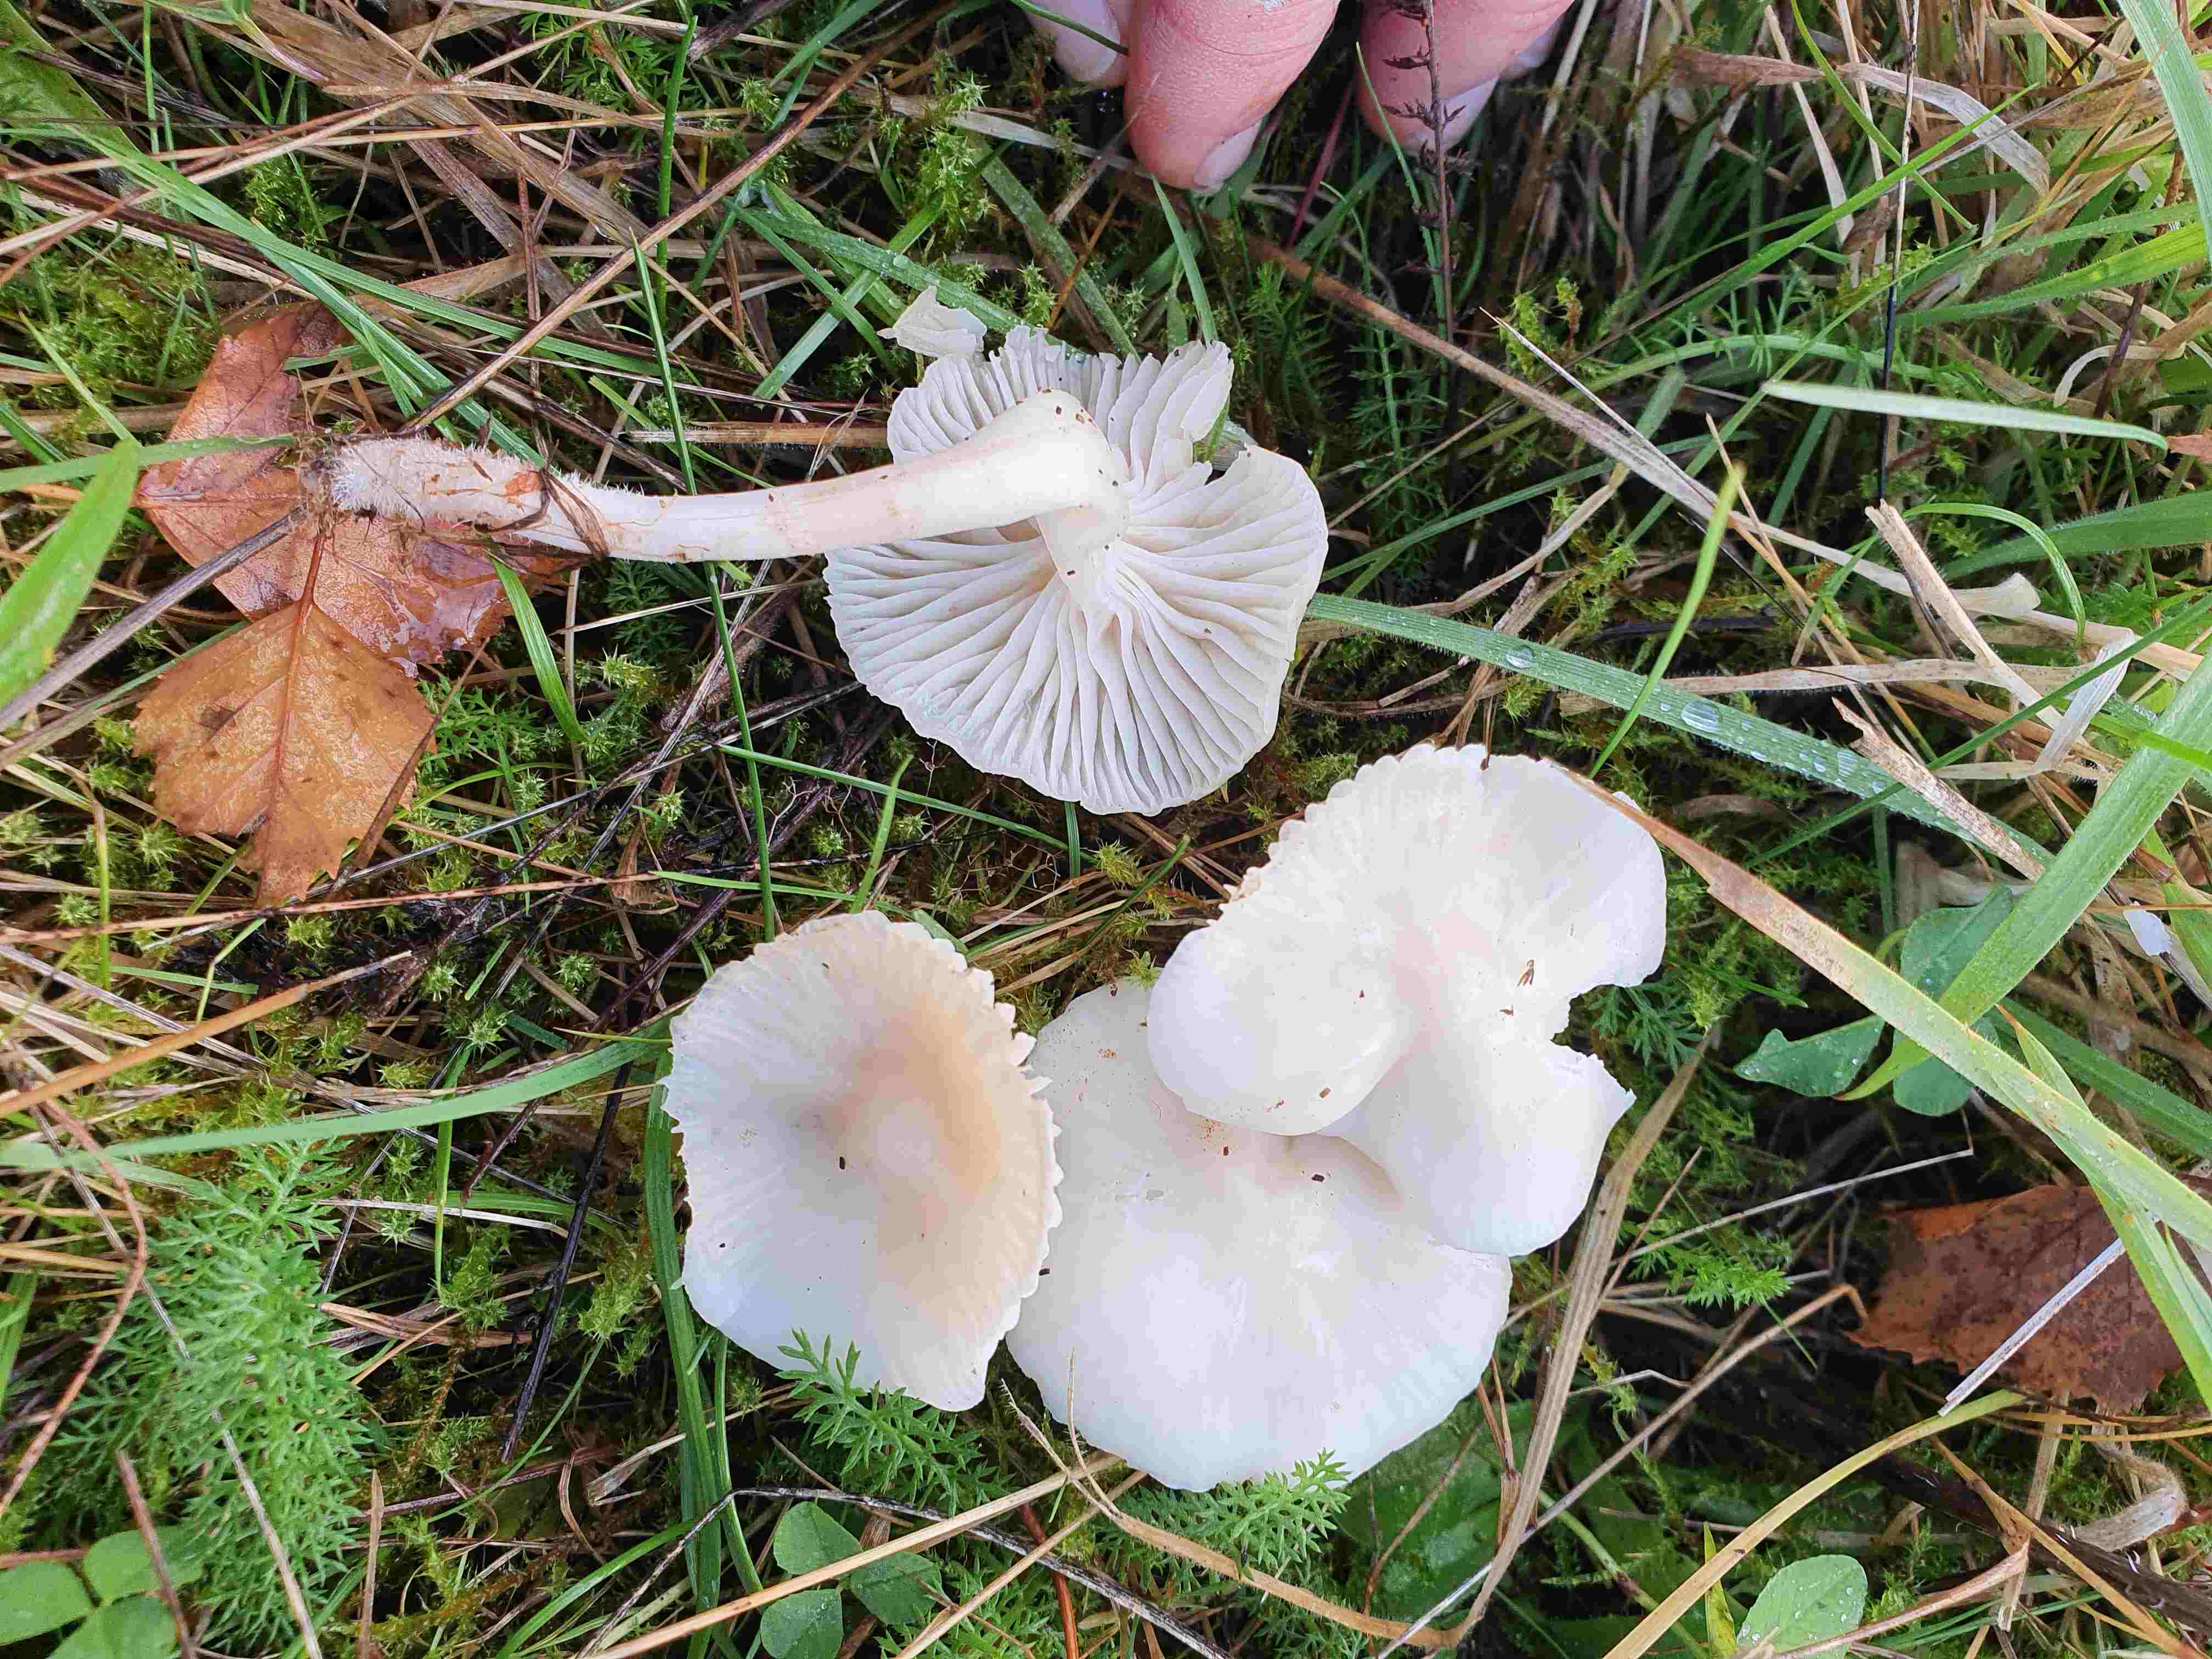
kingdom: Fungi
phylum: Basidiomycota
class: Agaricomycetes
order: Agaricales
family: Hygrophoraceae
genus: Cuphophyllus
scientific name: Cuphophyllus virgineus
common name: snehvid vokshat
